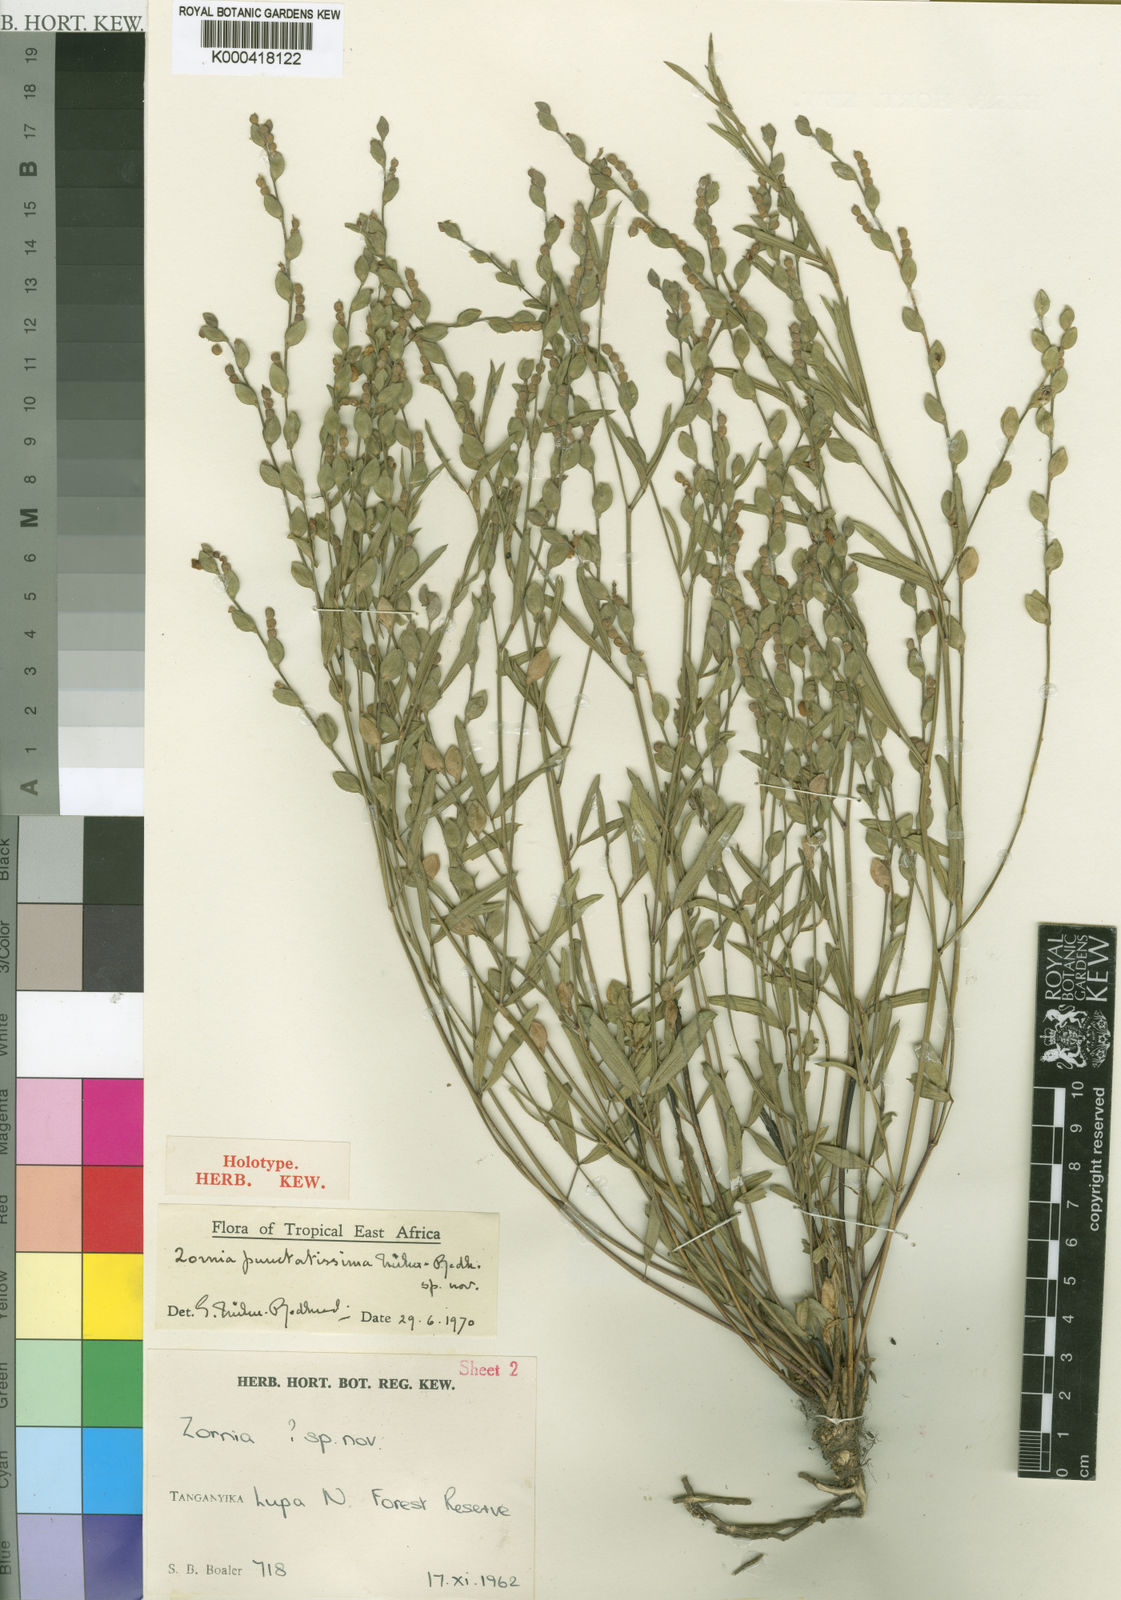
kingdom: Plantae
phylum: Tracheophyta
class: Magnoliopsida
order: Fabales
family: Fabaceae
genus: Zornia
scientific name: Zornia punctatissima
